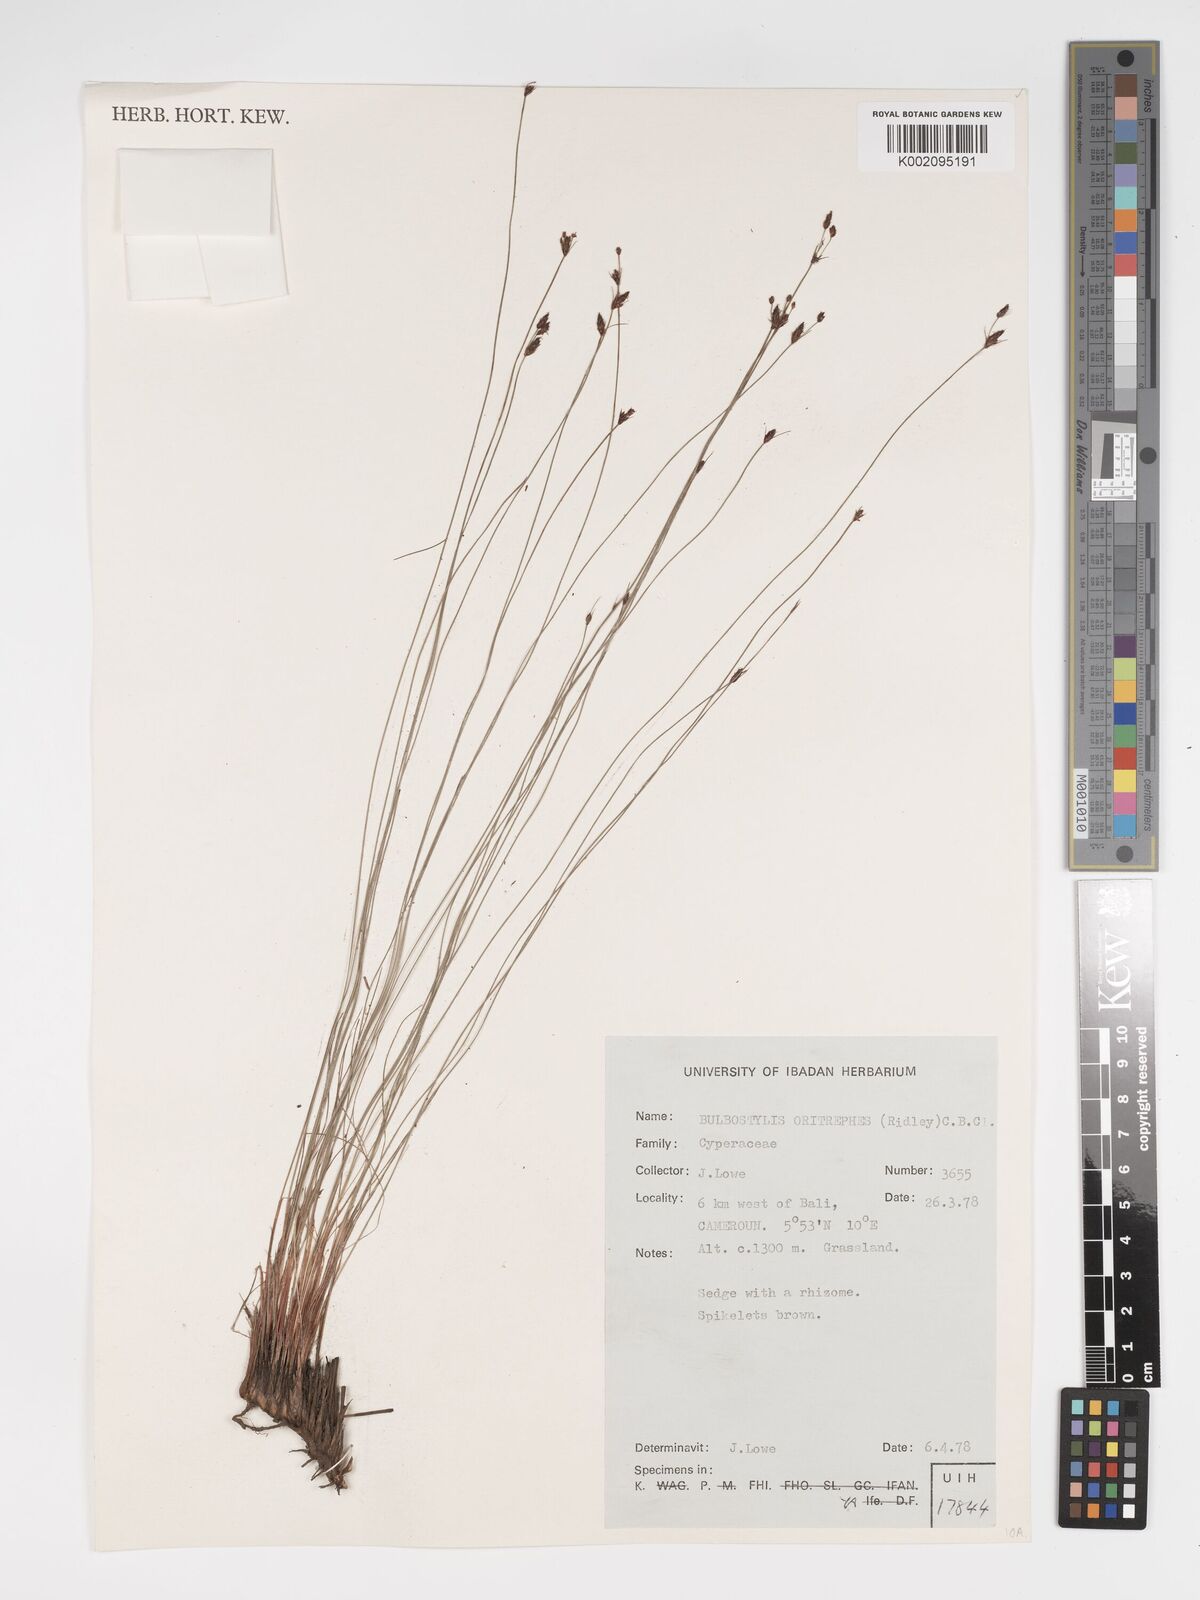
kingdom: Plantae
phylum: Tracheophyta
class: Liliopsida
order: Poales
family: Cyperaceae
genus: Bulbostylis
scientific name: Bulbostylis oritrephes
